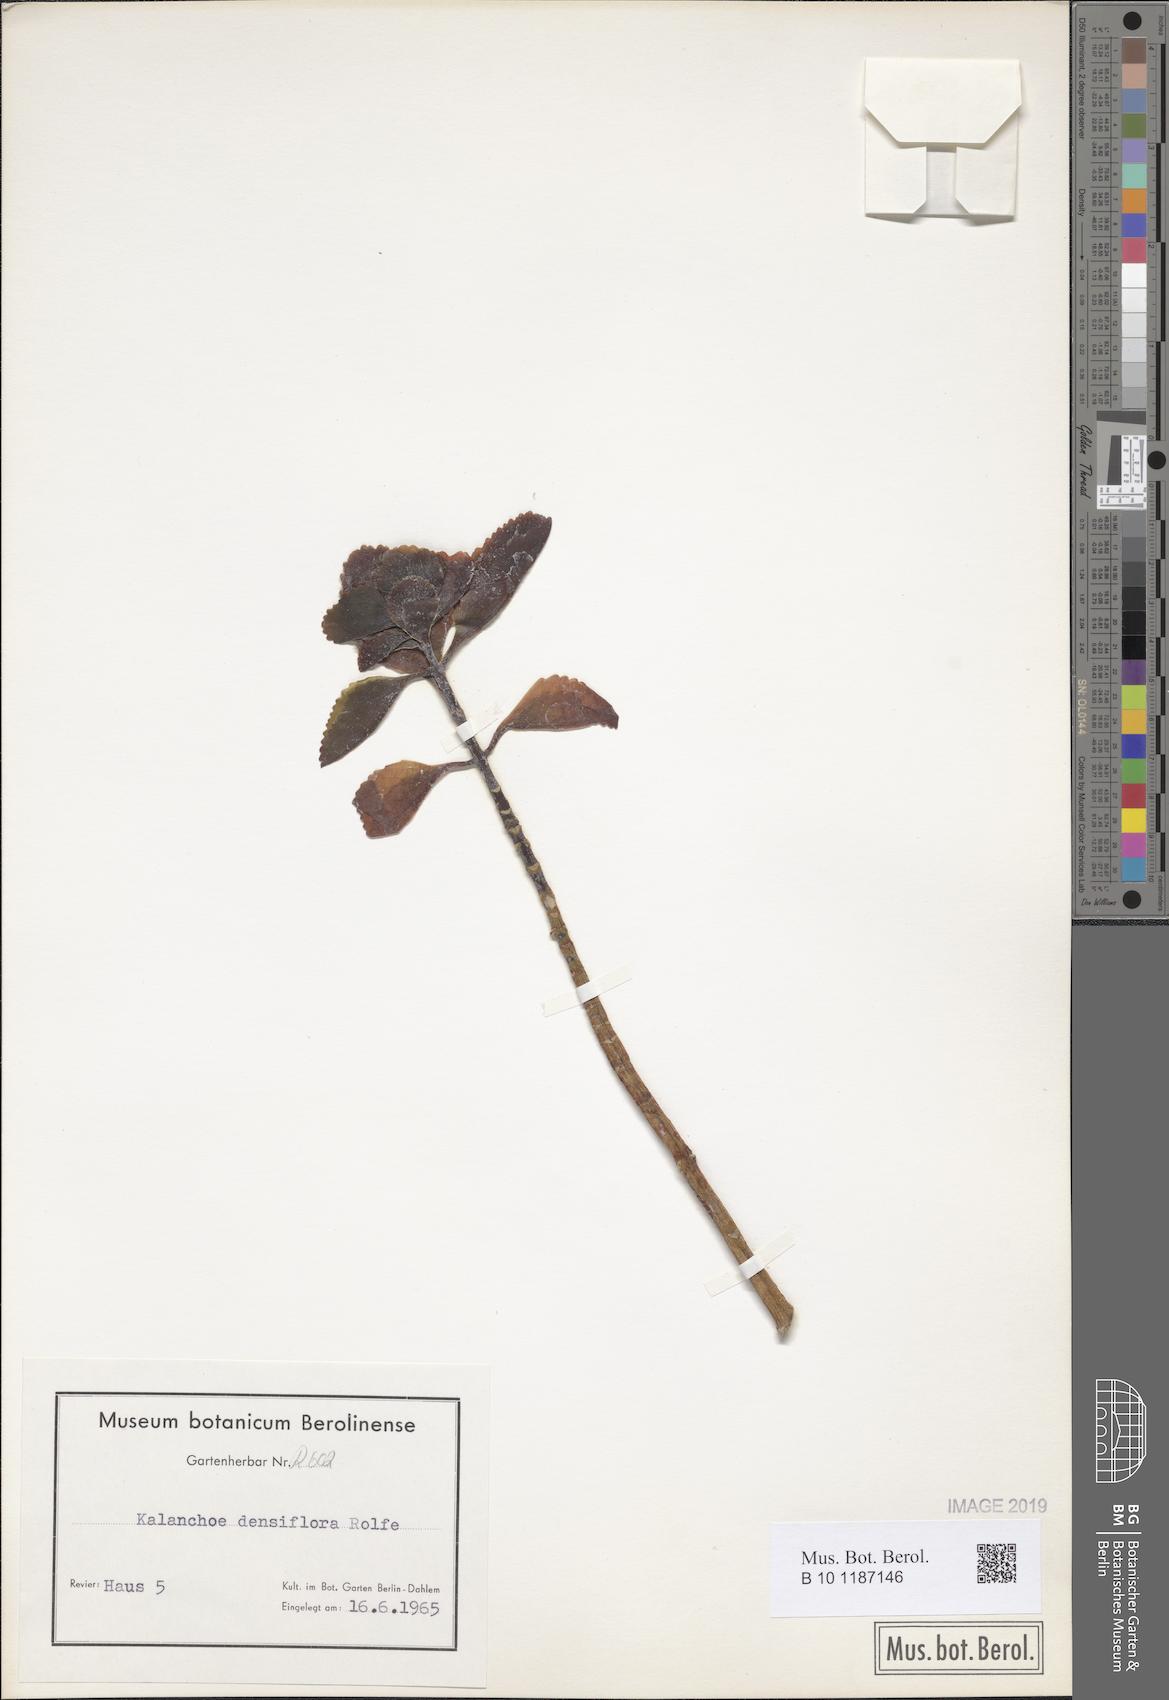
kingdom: Plantae
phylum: Tracheophyta
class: Magnoliopsida
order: Saxifragales
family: Crassulaceae
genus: Kalanchoe
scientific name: Kalanchoe densiflora
